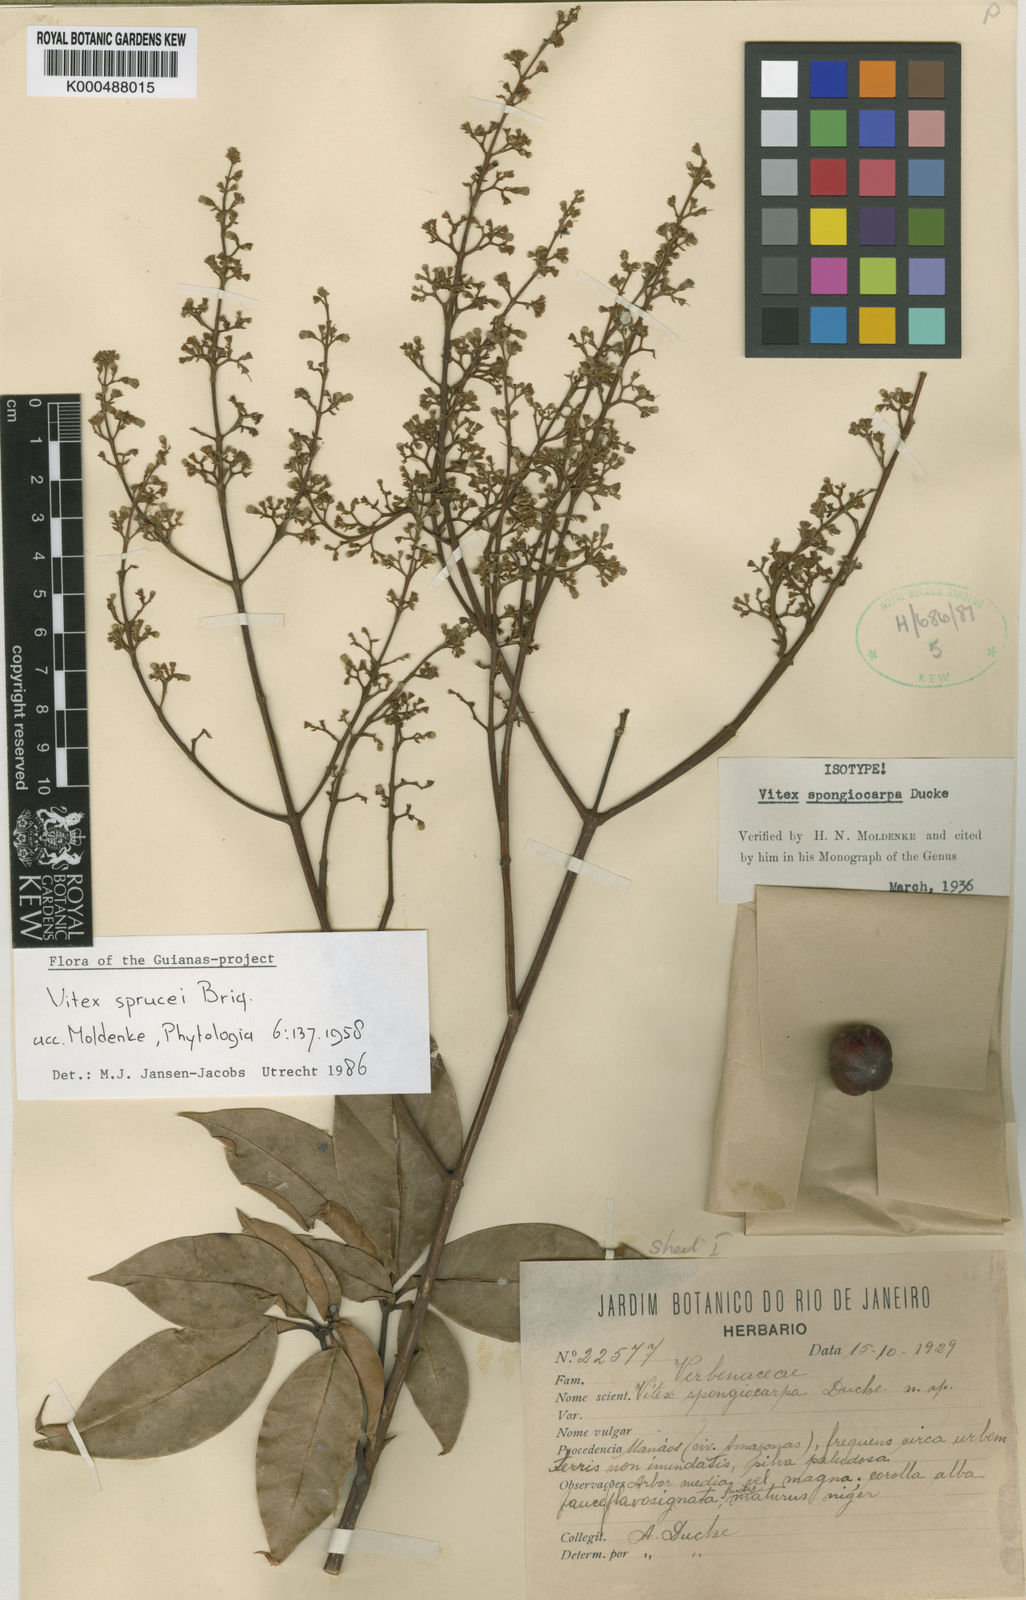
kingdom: Plantae
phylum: Tracheophyta
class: Magnoliopsida
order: Lamiales
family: Lamiaceae
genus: Vitex
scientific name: Vitex sprucei
